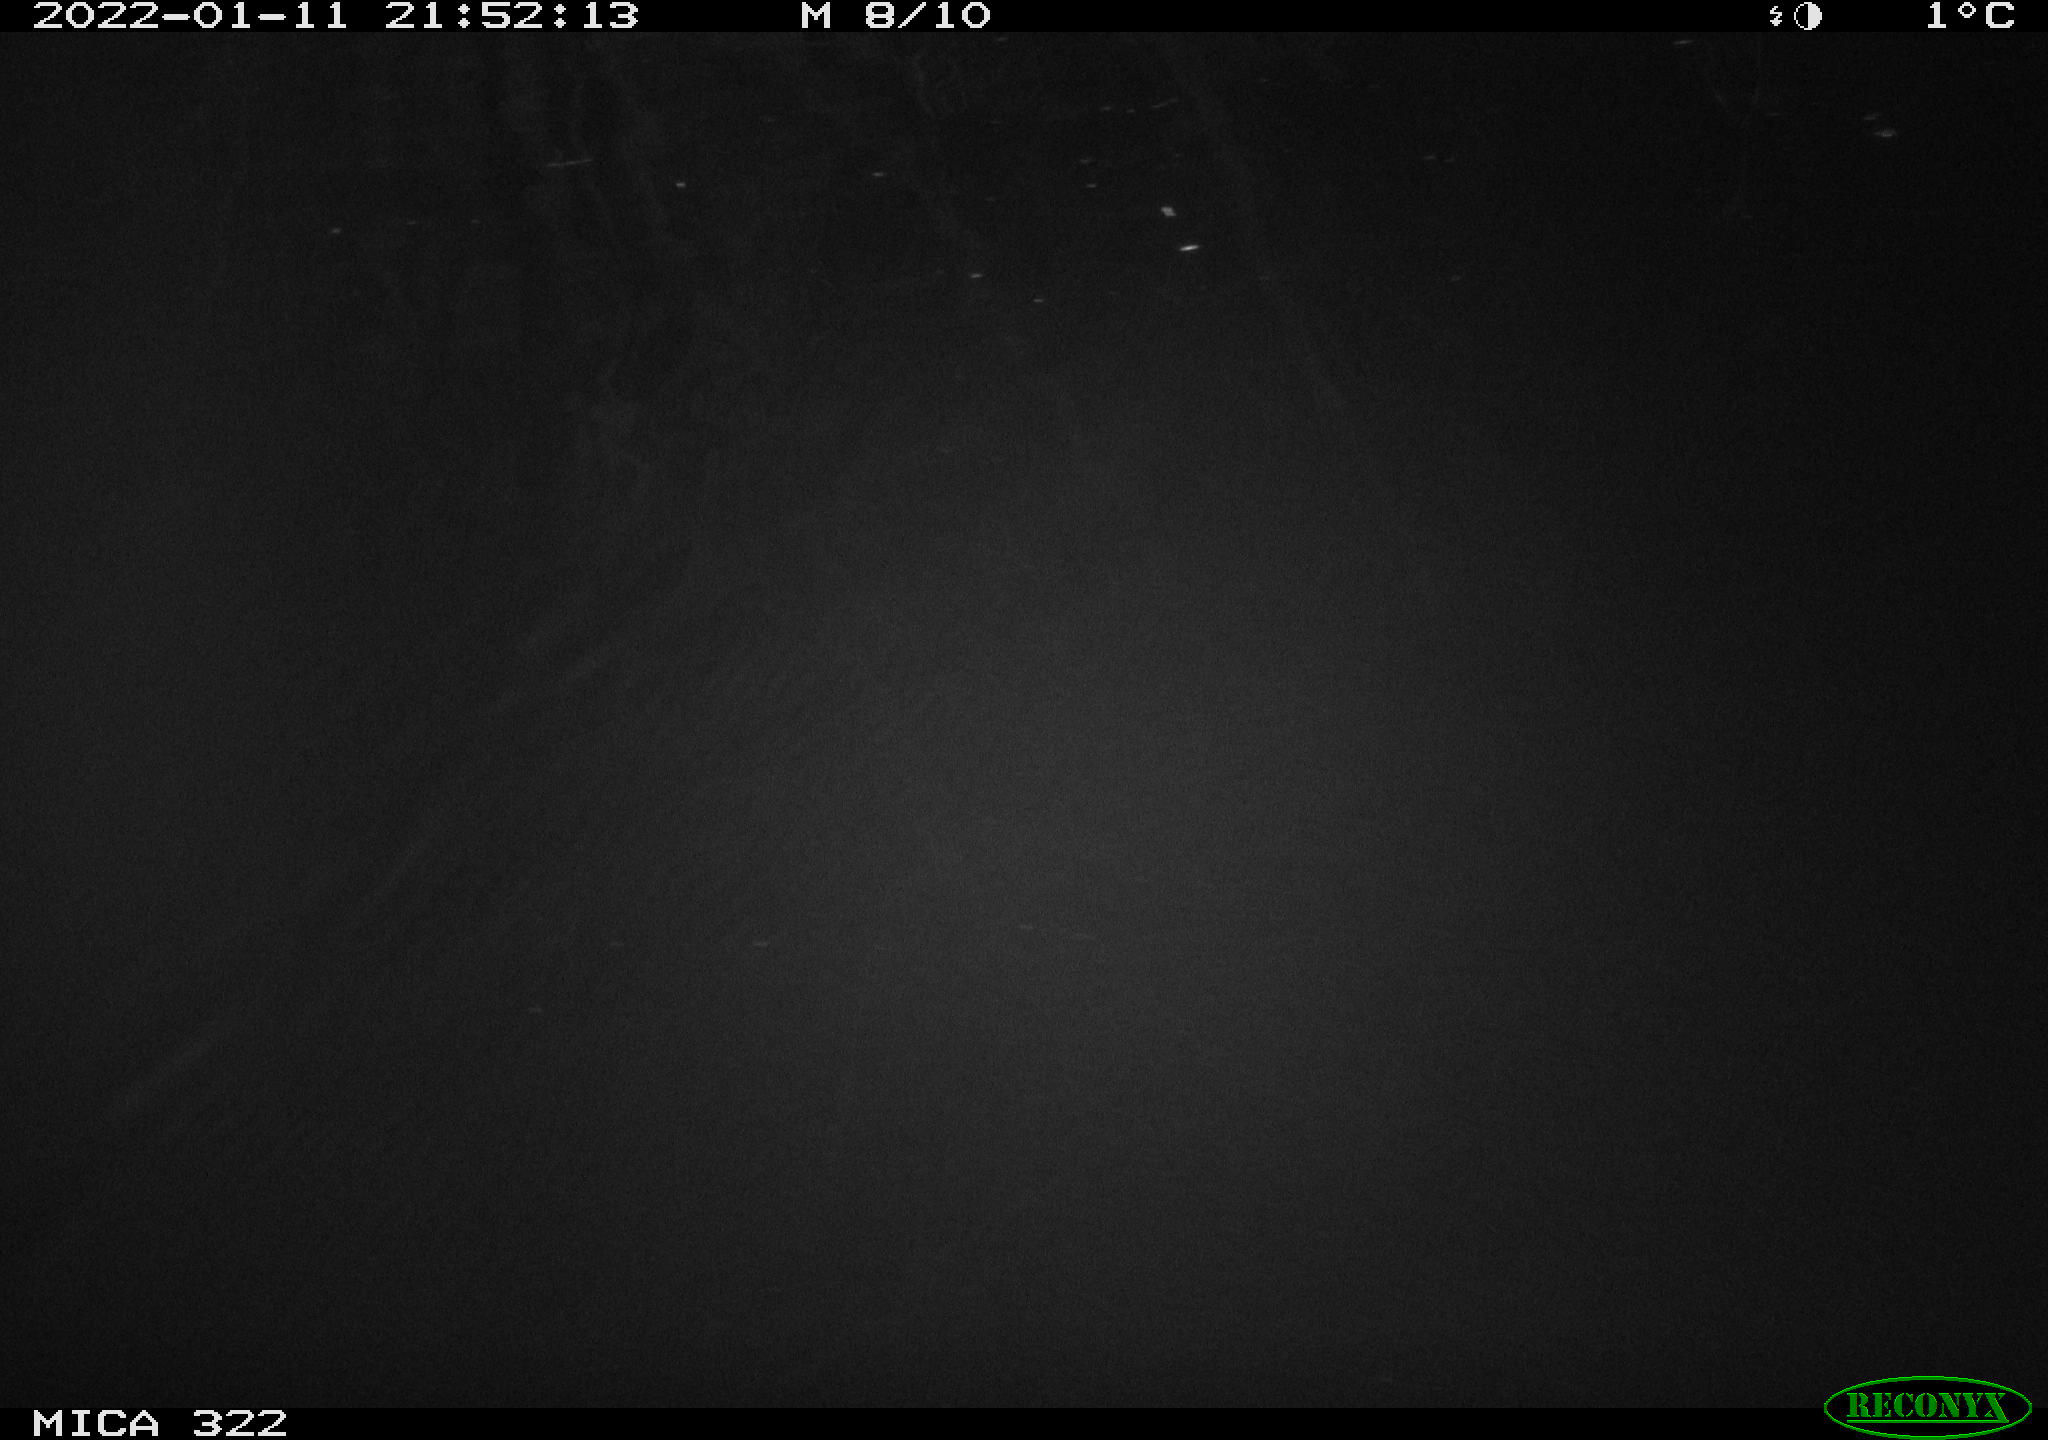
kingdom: Animalia
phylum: Chordata
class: Mammalia
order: Rodentia
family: Muridae
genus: Rattus
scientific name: Rattus norvegicus
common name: Brown rat
